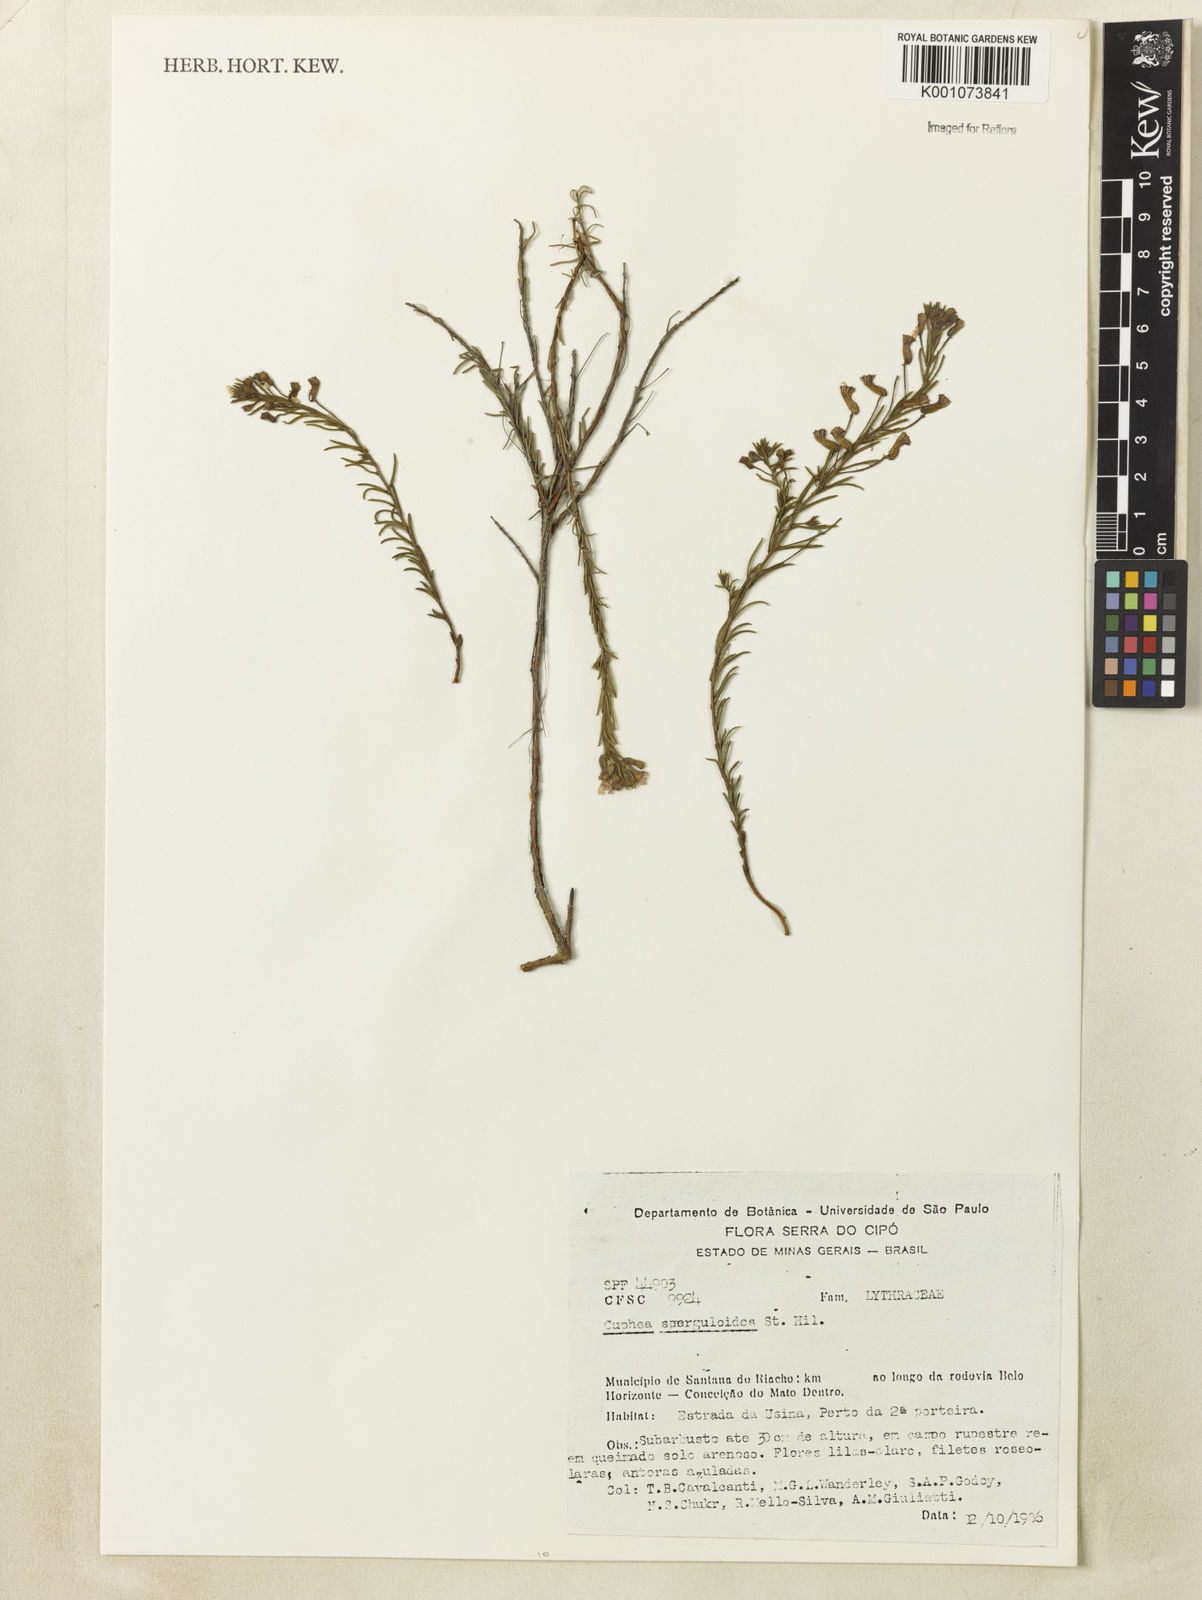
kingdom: Plantae
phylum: Tracheophyta
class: Magnoliopsida
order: Myrtales
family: Lythraceae
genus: Cuphea
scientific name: Cuphea sperguloides
